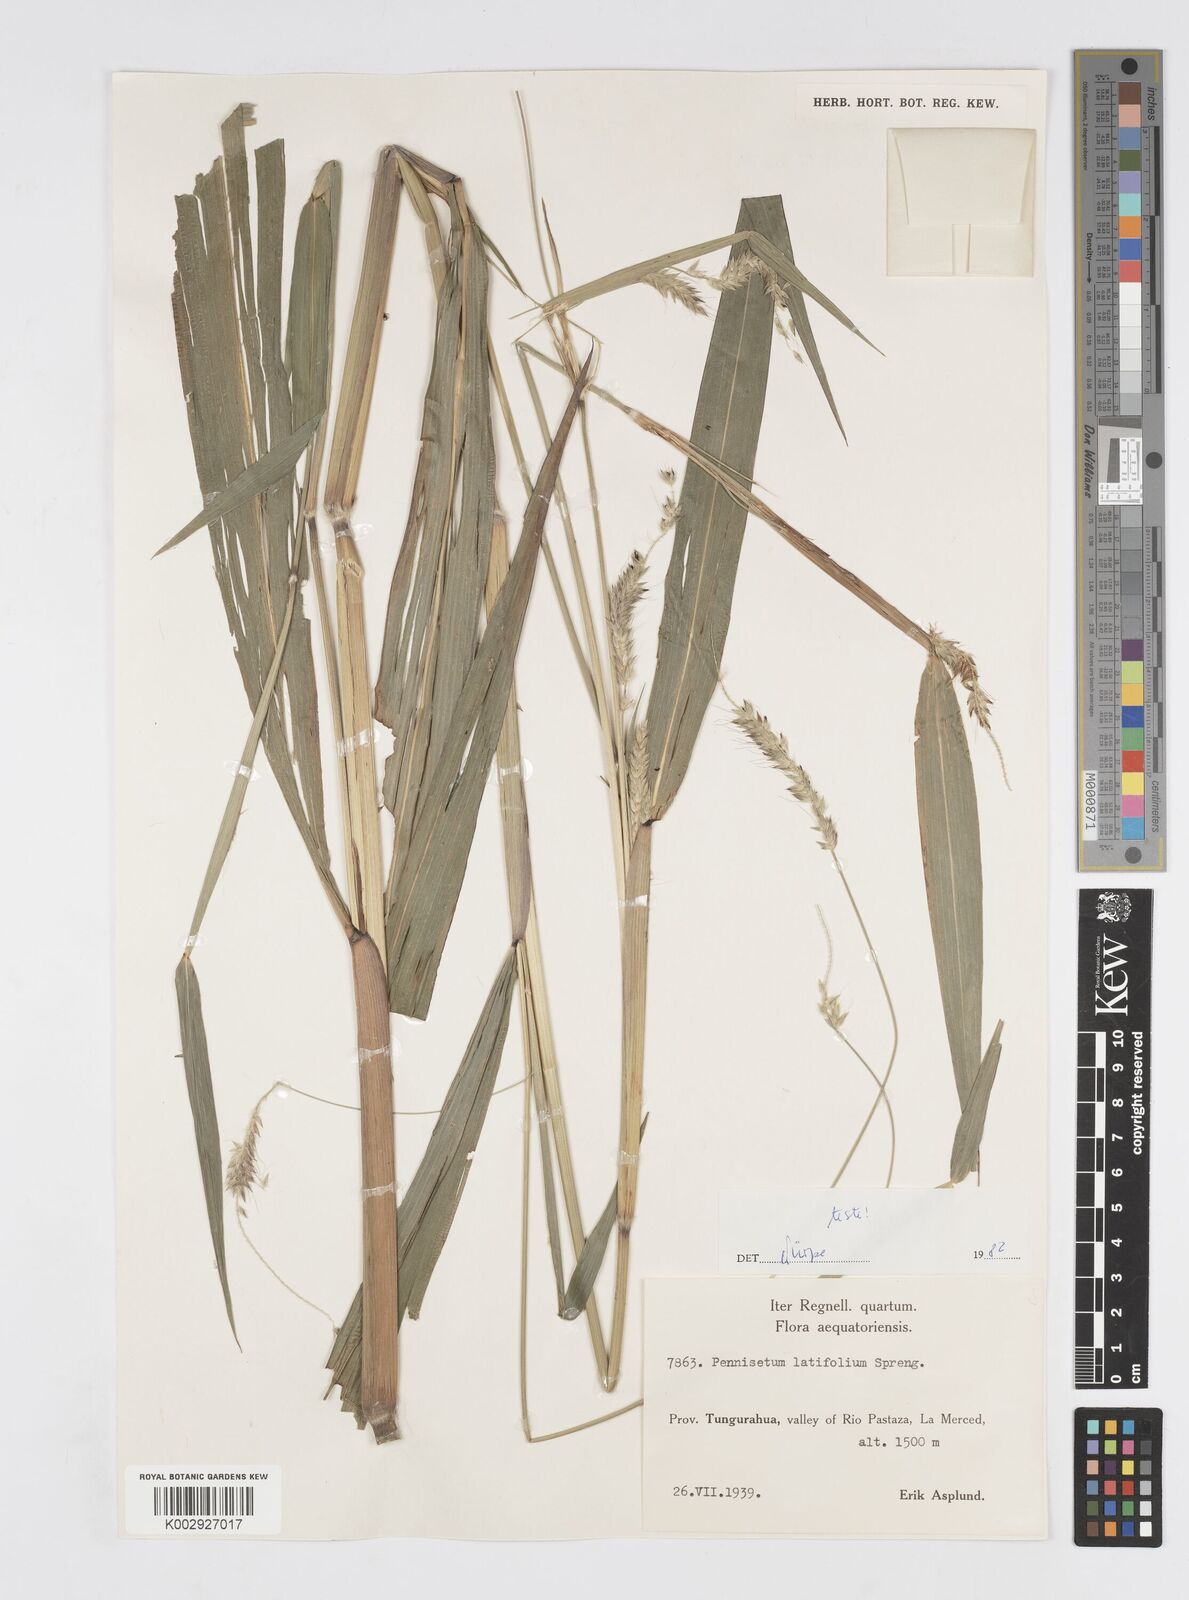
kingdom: Plantae
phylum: Tracheophyta
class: Liliopsida
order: Poales
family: Poaceae
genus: Cenchrus
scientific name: Cenchrus latifolius
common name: Sandbur
